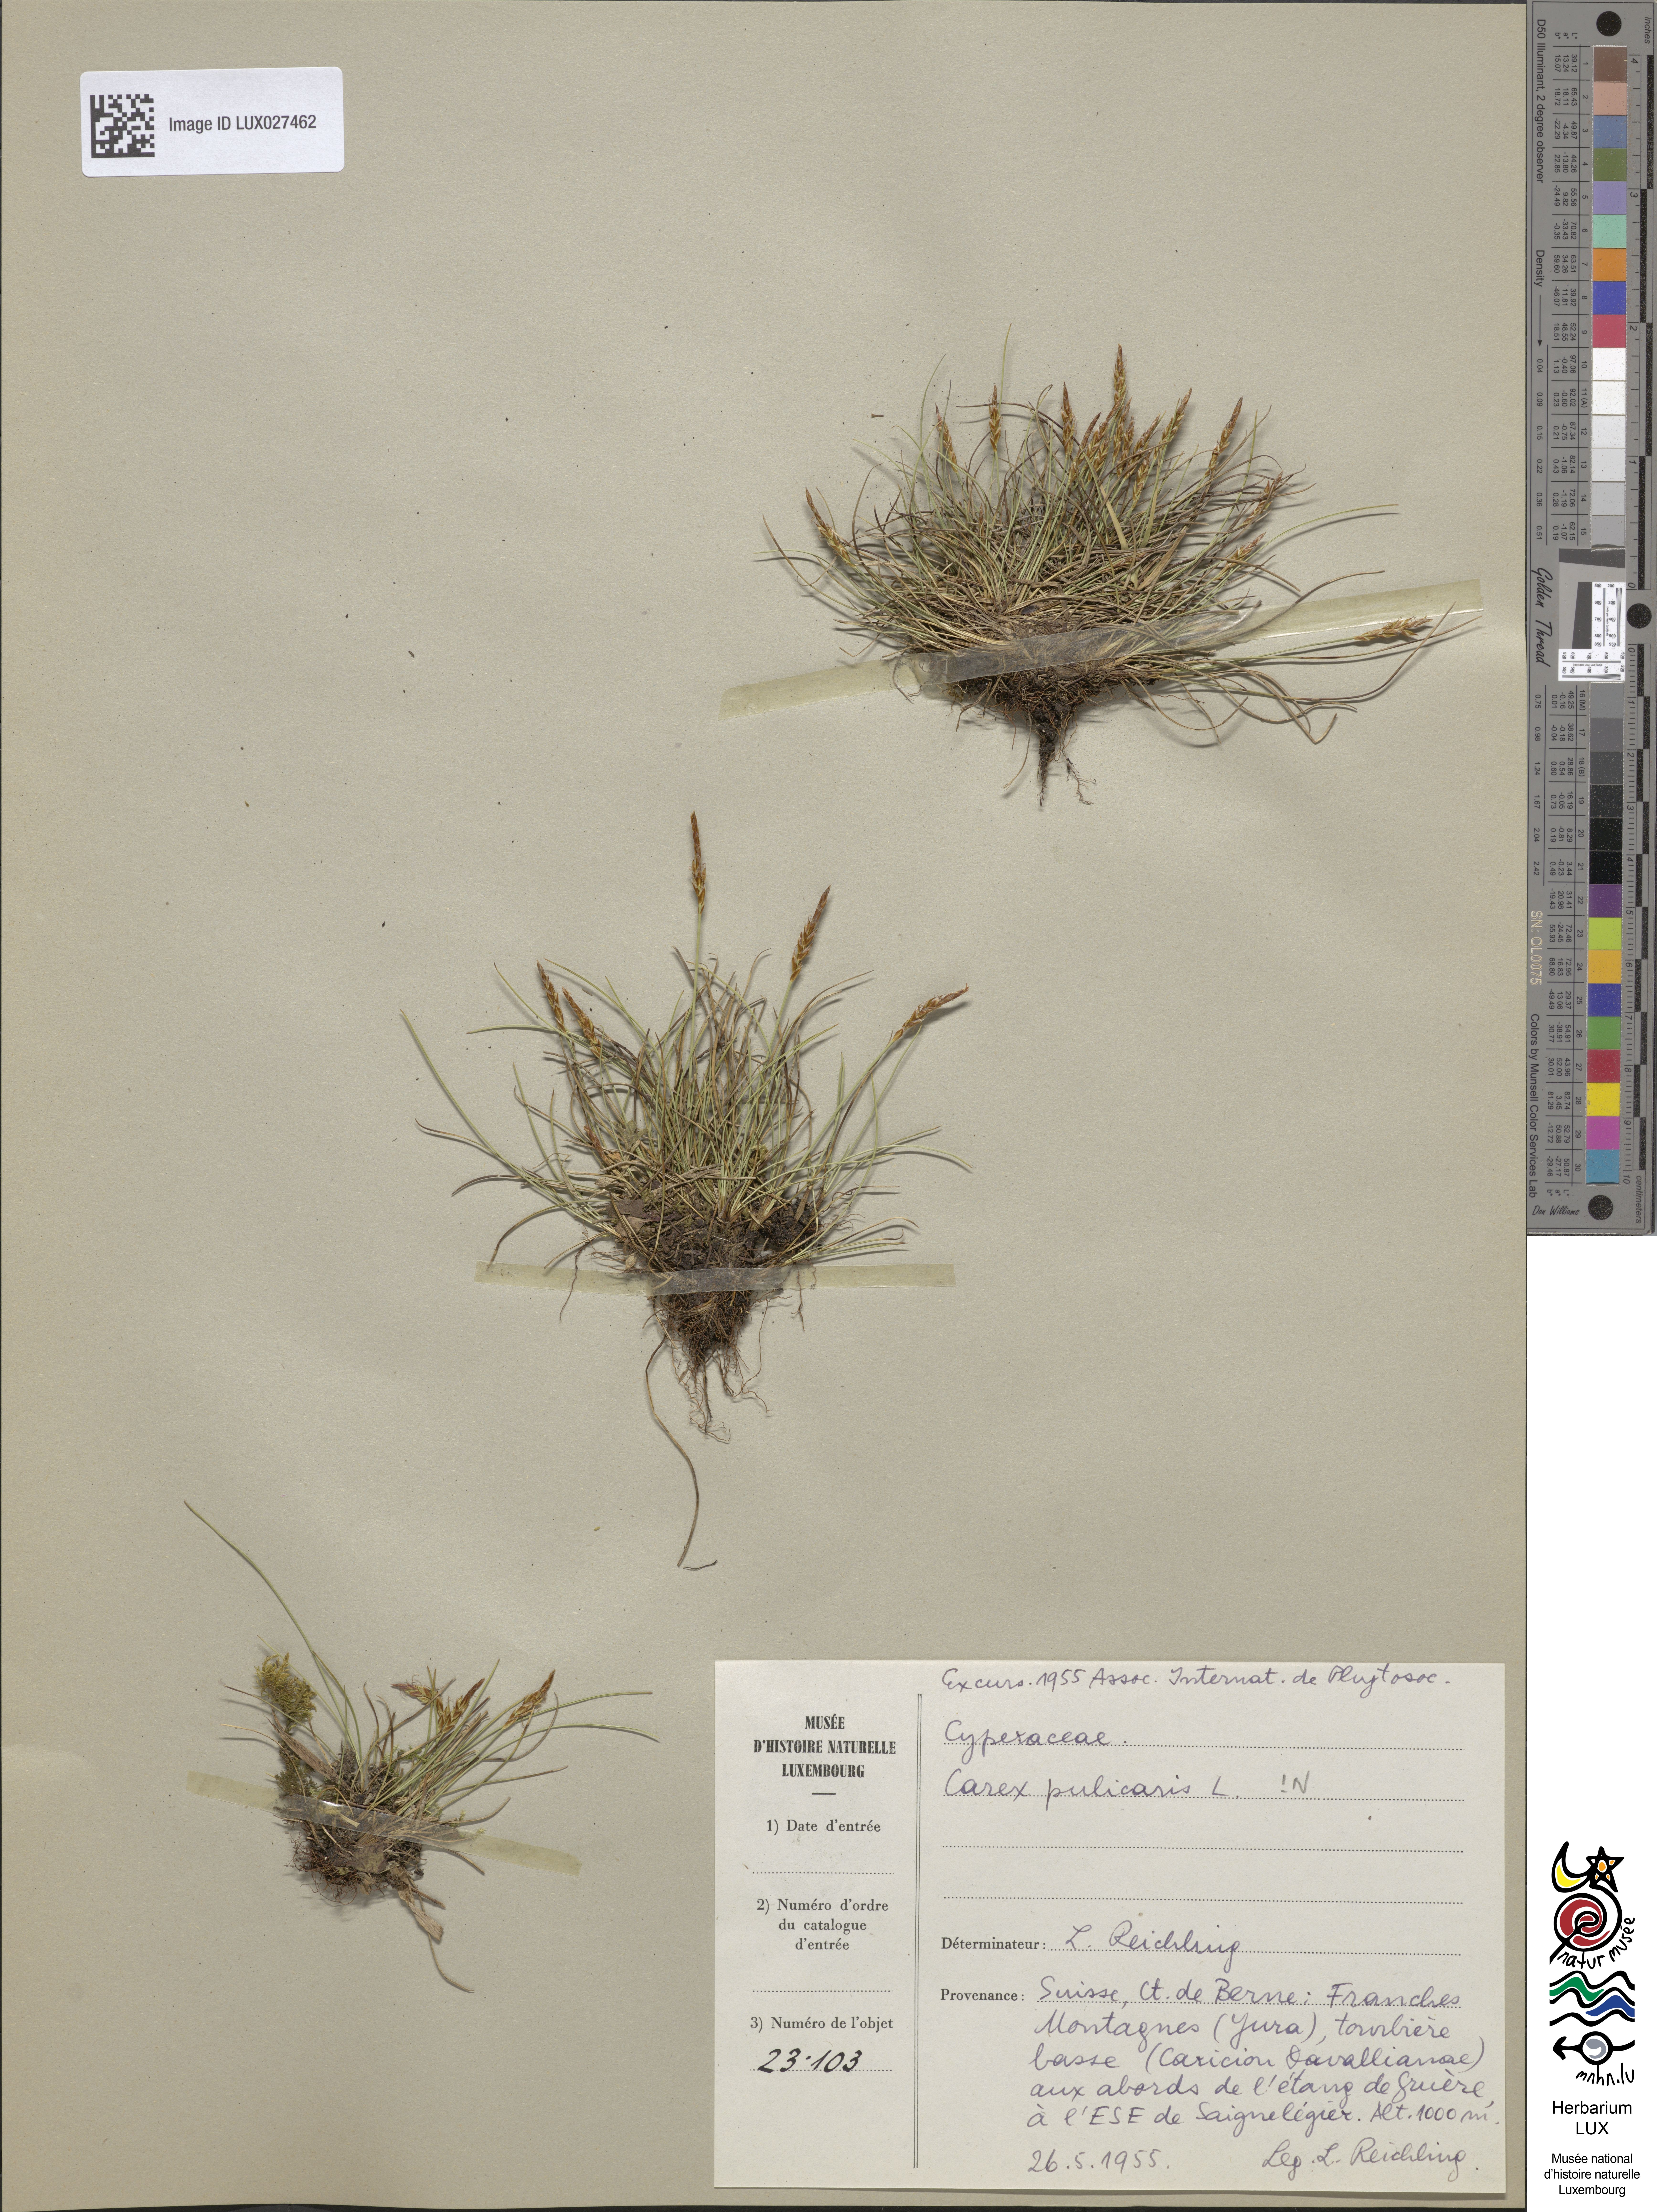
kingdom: Plantae
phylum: Tracheophyta
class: Liliopsida
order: Poales
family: Cyperaceae
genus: Carex
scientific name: Carex pulicaris
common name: Flea sedge
